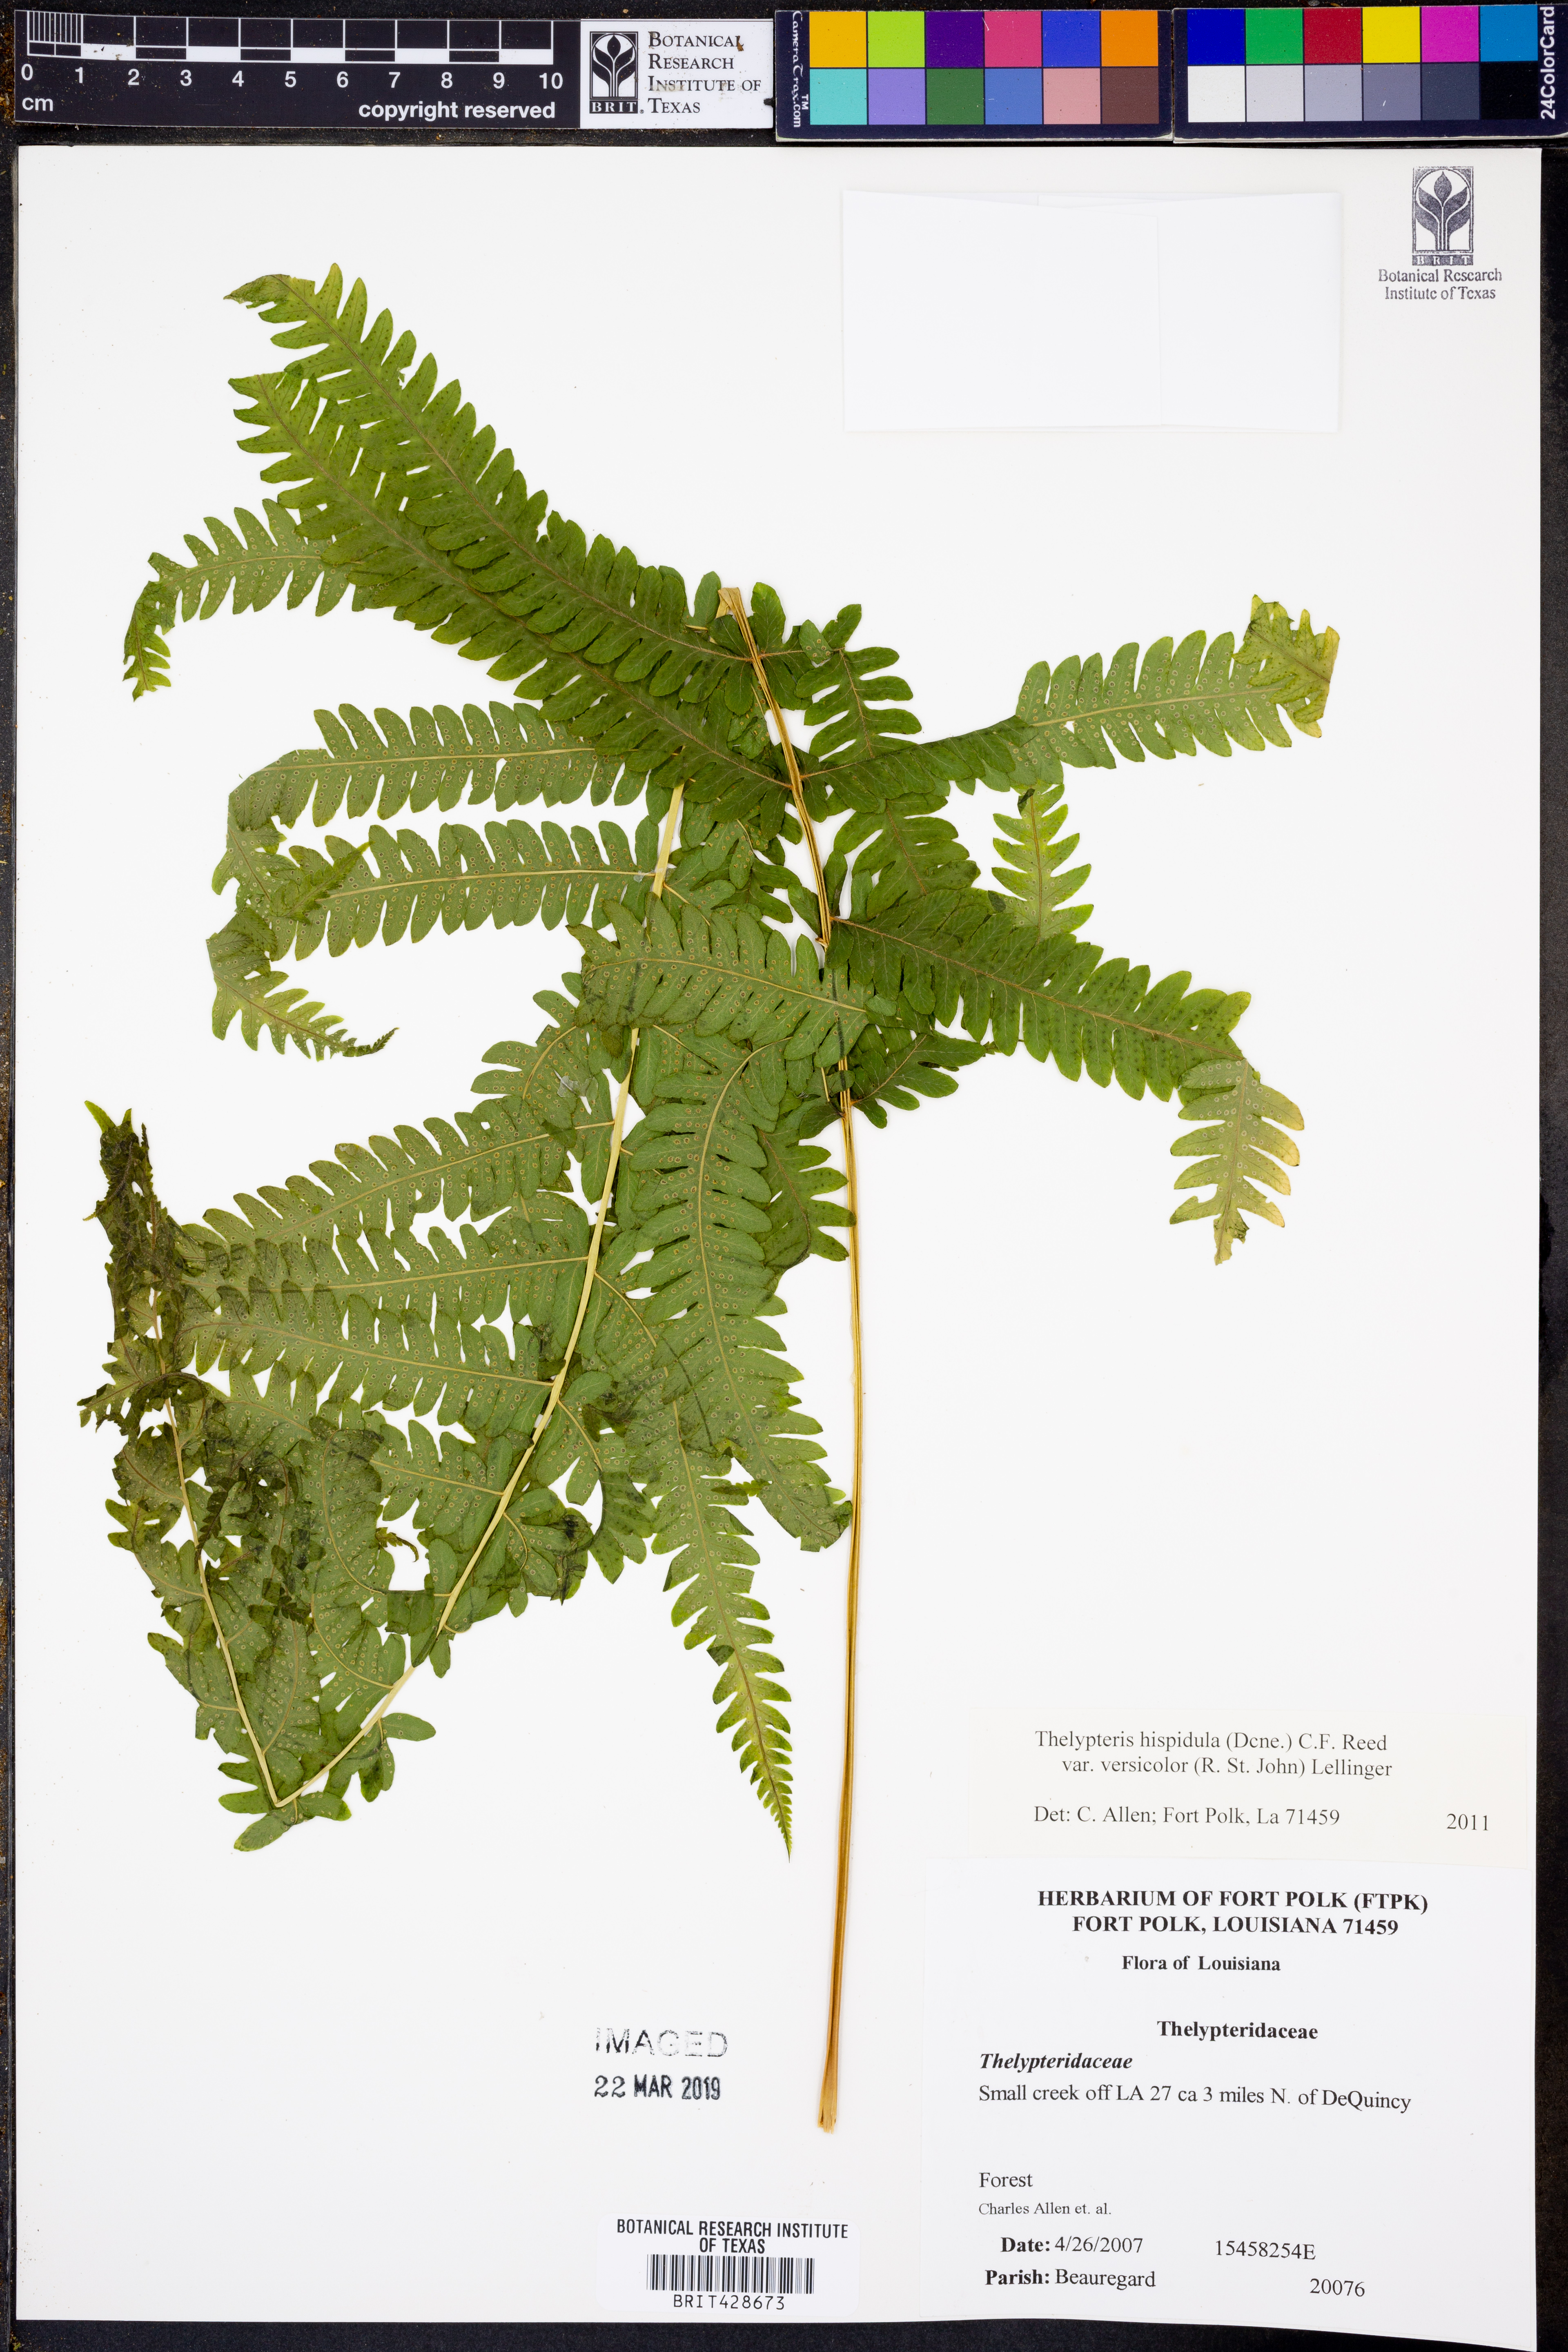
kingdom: Plantae
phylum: Tracheophyta
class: Polypodiopsida
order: Polypodiales
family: Thelypteridaceae
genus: Christella
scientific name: Christella hispidula
